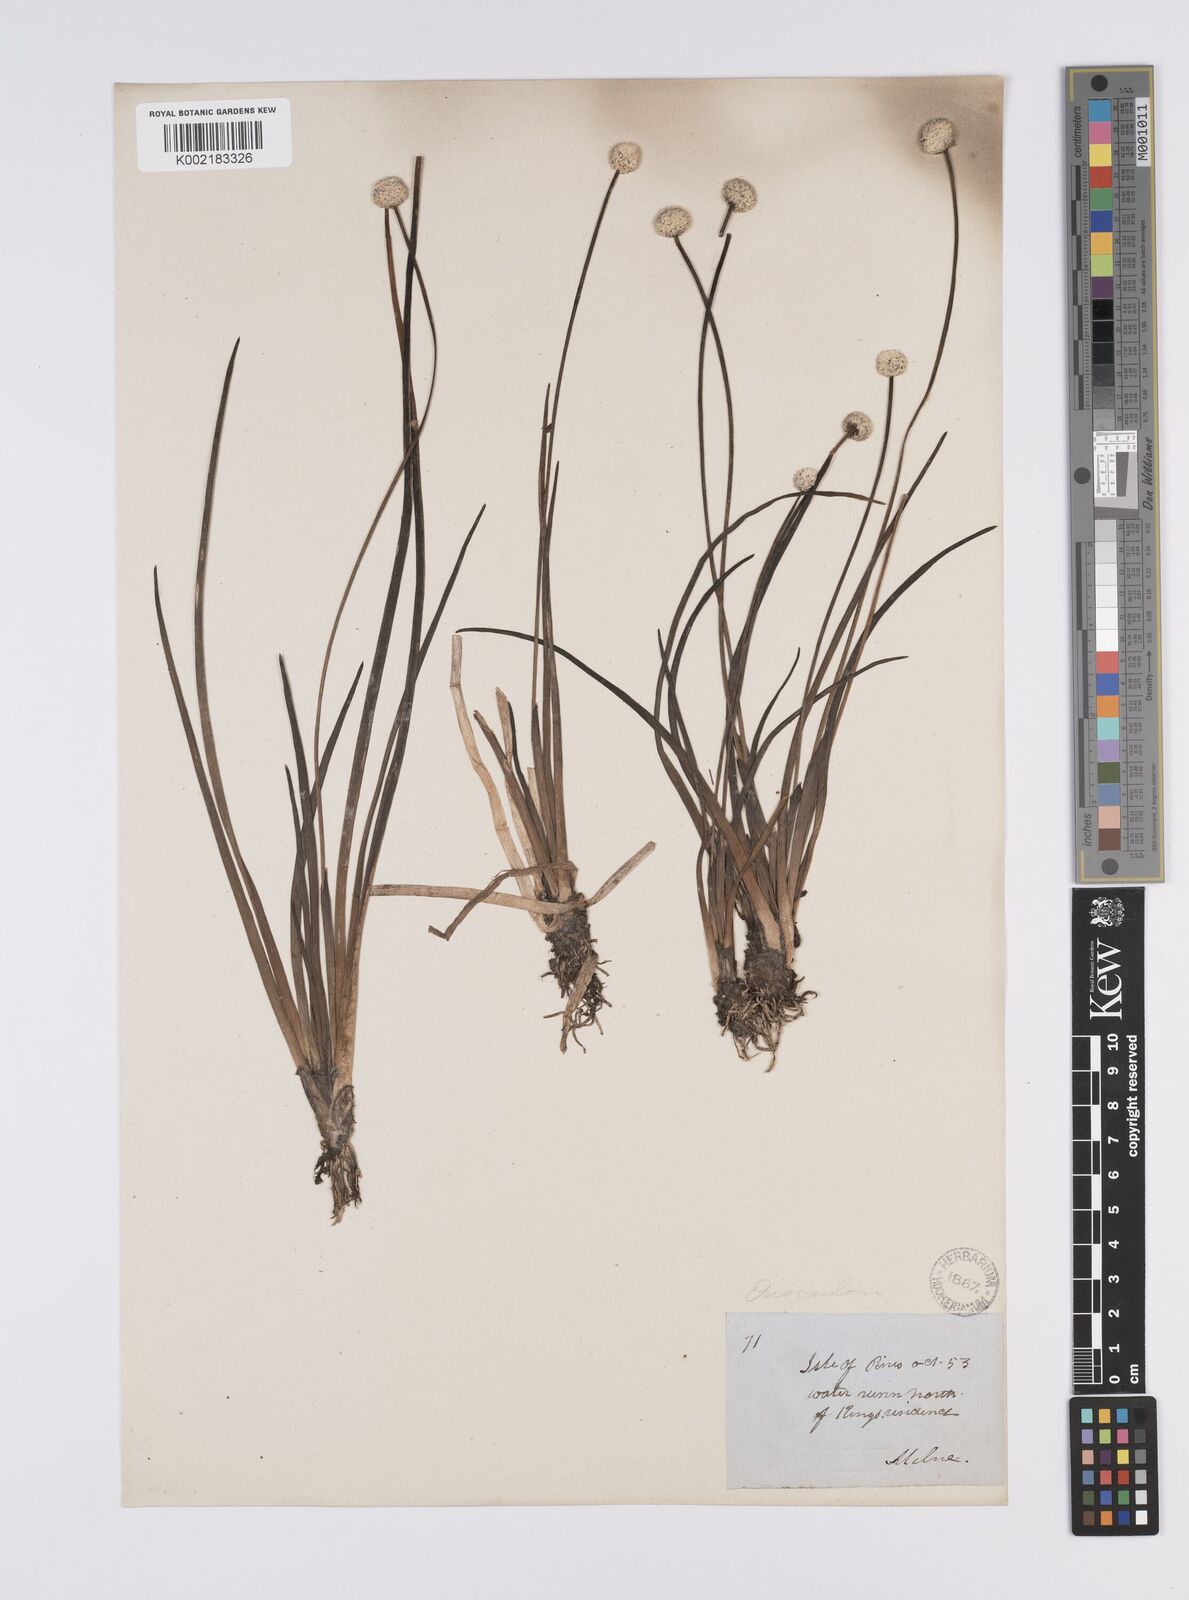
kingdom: Plantae
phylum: Tracheophyta
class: Liliopsida
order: Poales
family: Eriocaulaceae
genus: Eriocaulon
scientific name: Eriocaulon
